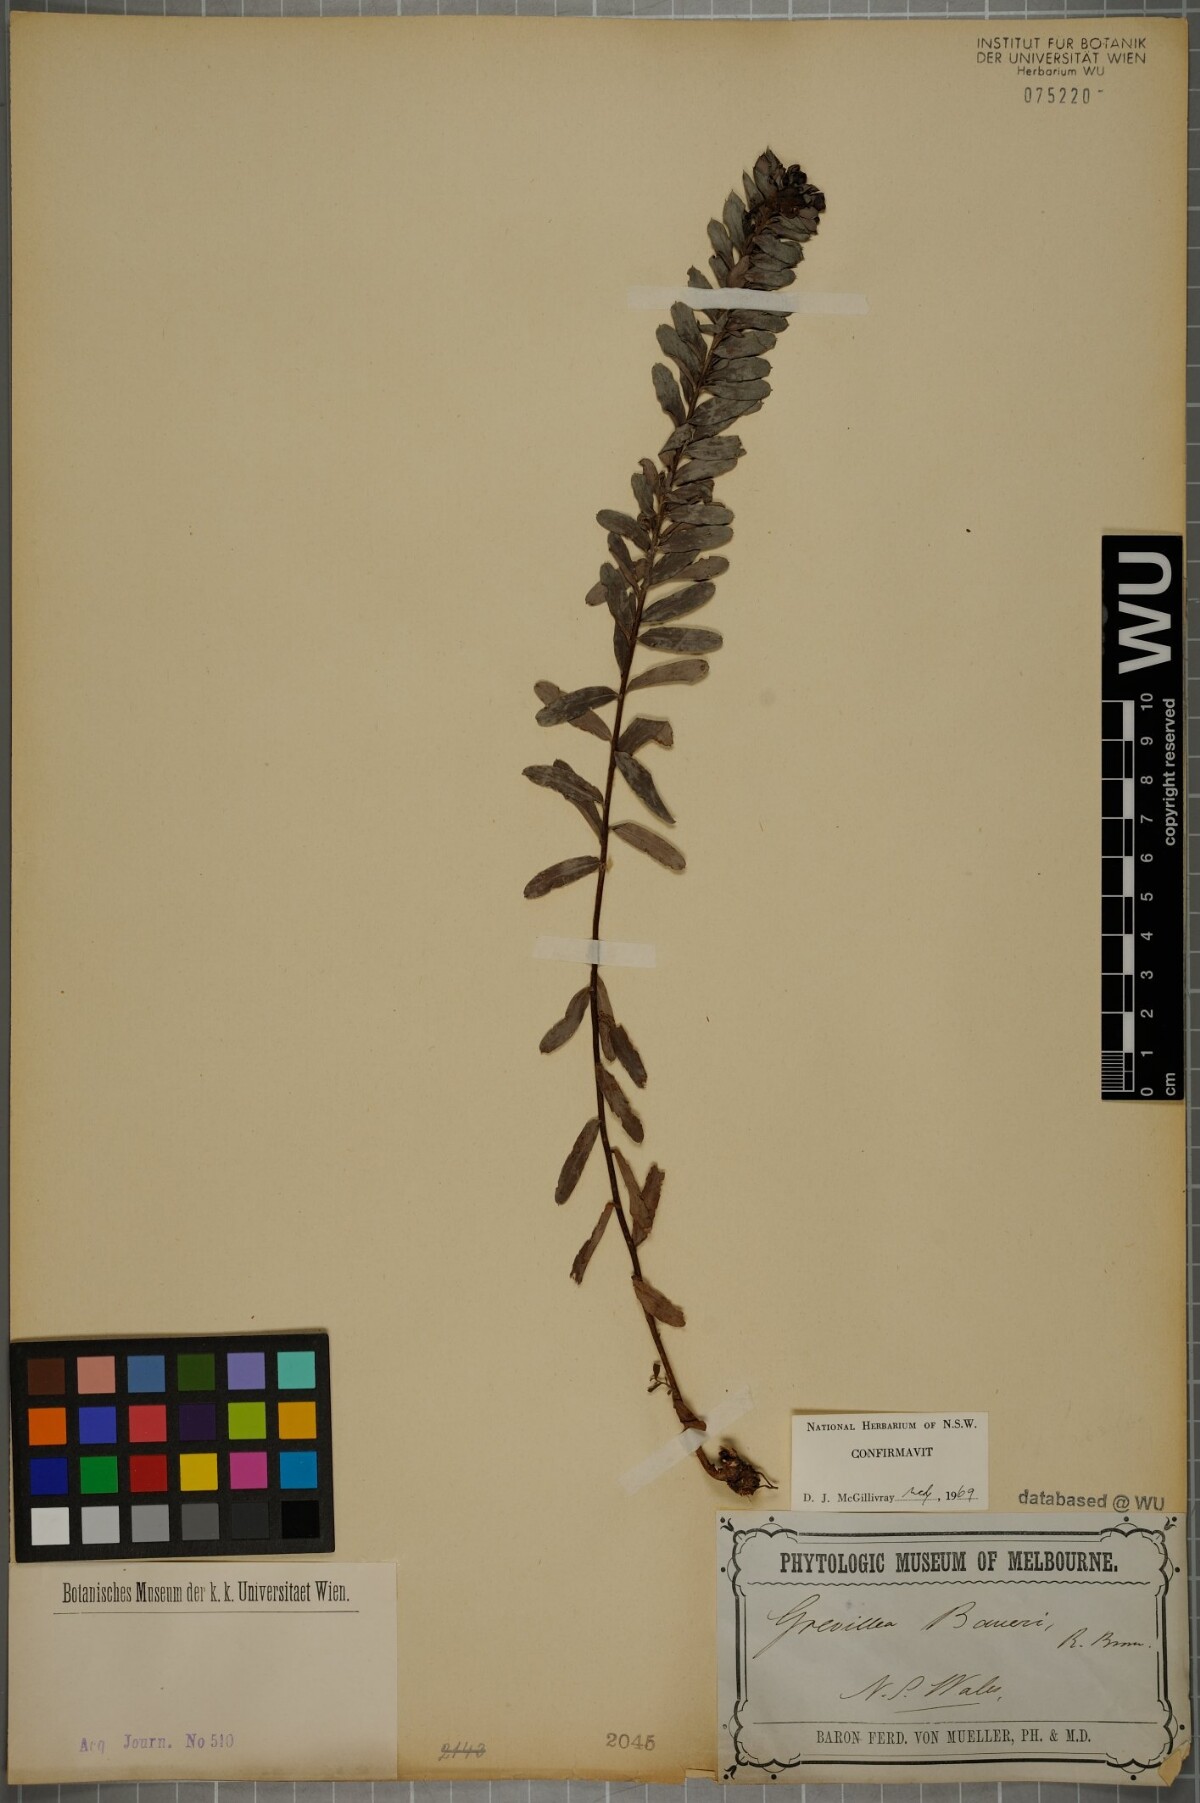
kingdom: Plantae
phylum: Tracheophyta
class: Magnoliopsida
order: Proteales
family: Proteaceae
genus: Grevillea
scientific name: Grevillea baueri
